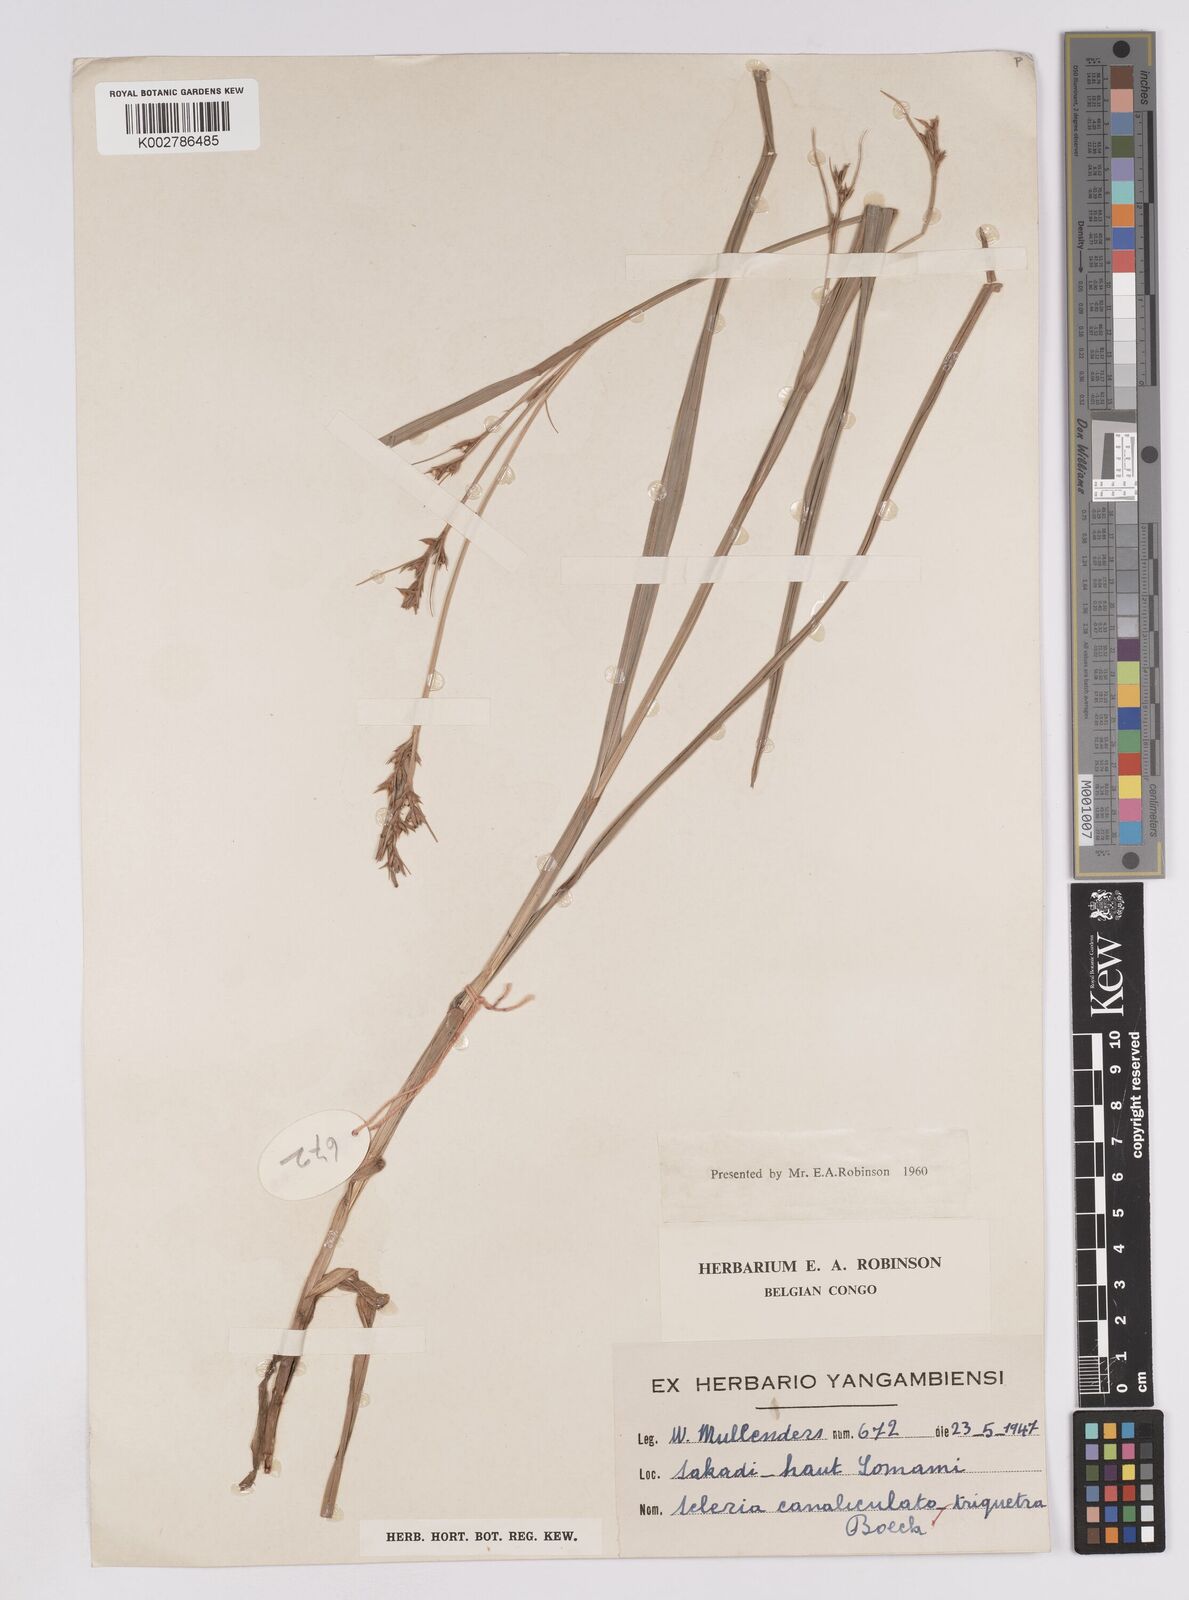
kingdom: Plantae
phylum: Tracheophyta
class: Liliopsida
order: Poales
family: Cyperaceae
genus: Scleria
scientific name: Scleria lagoensis
